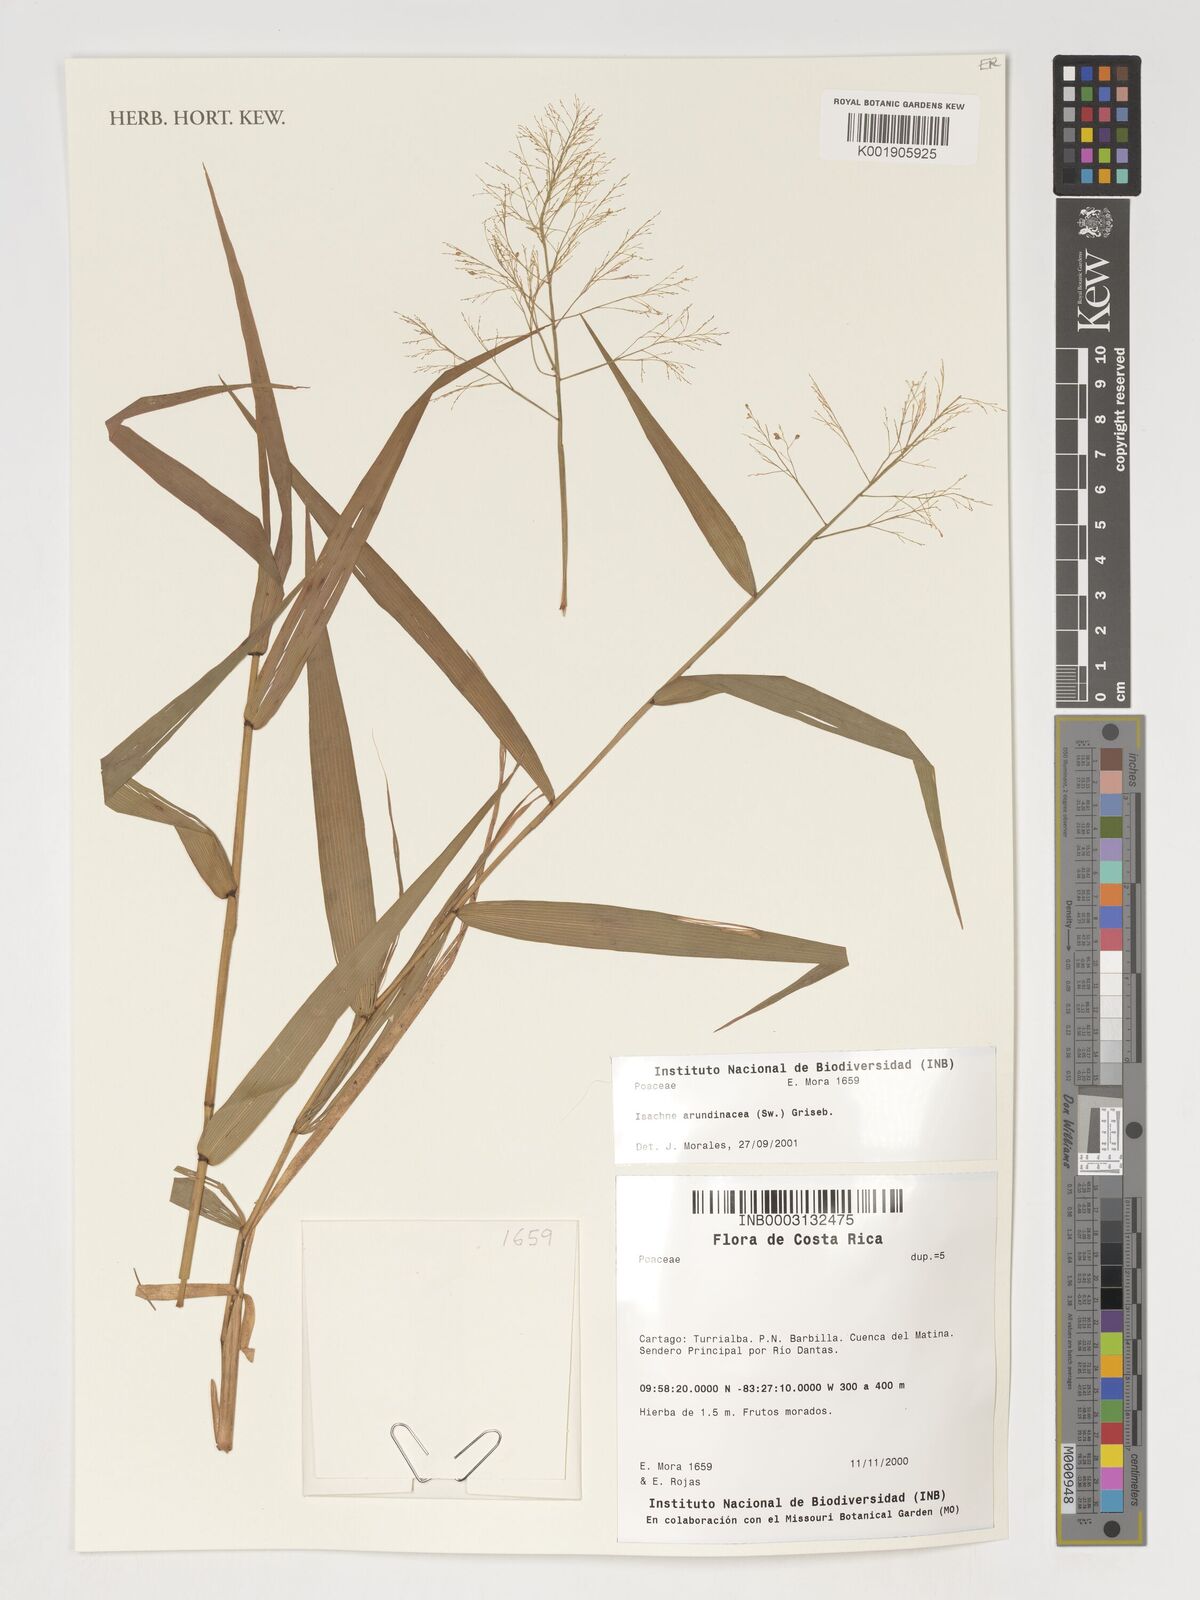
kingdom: Plantae
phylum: Tracheophyta
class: Liliopsida
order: Poales
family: Poaceae
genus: Isachne
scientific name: Isachne arundinacea
